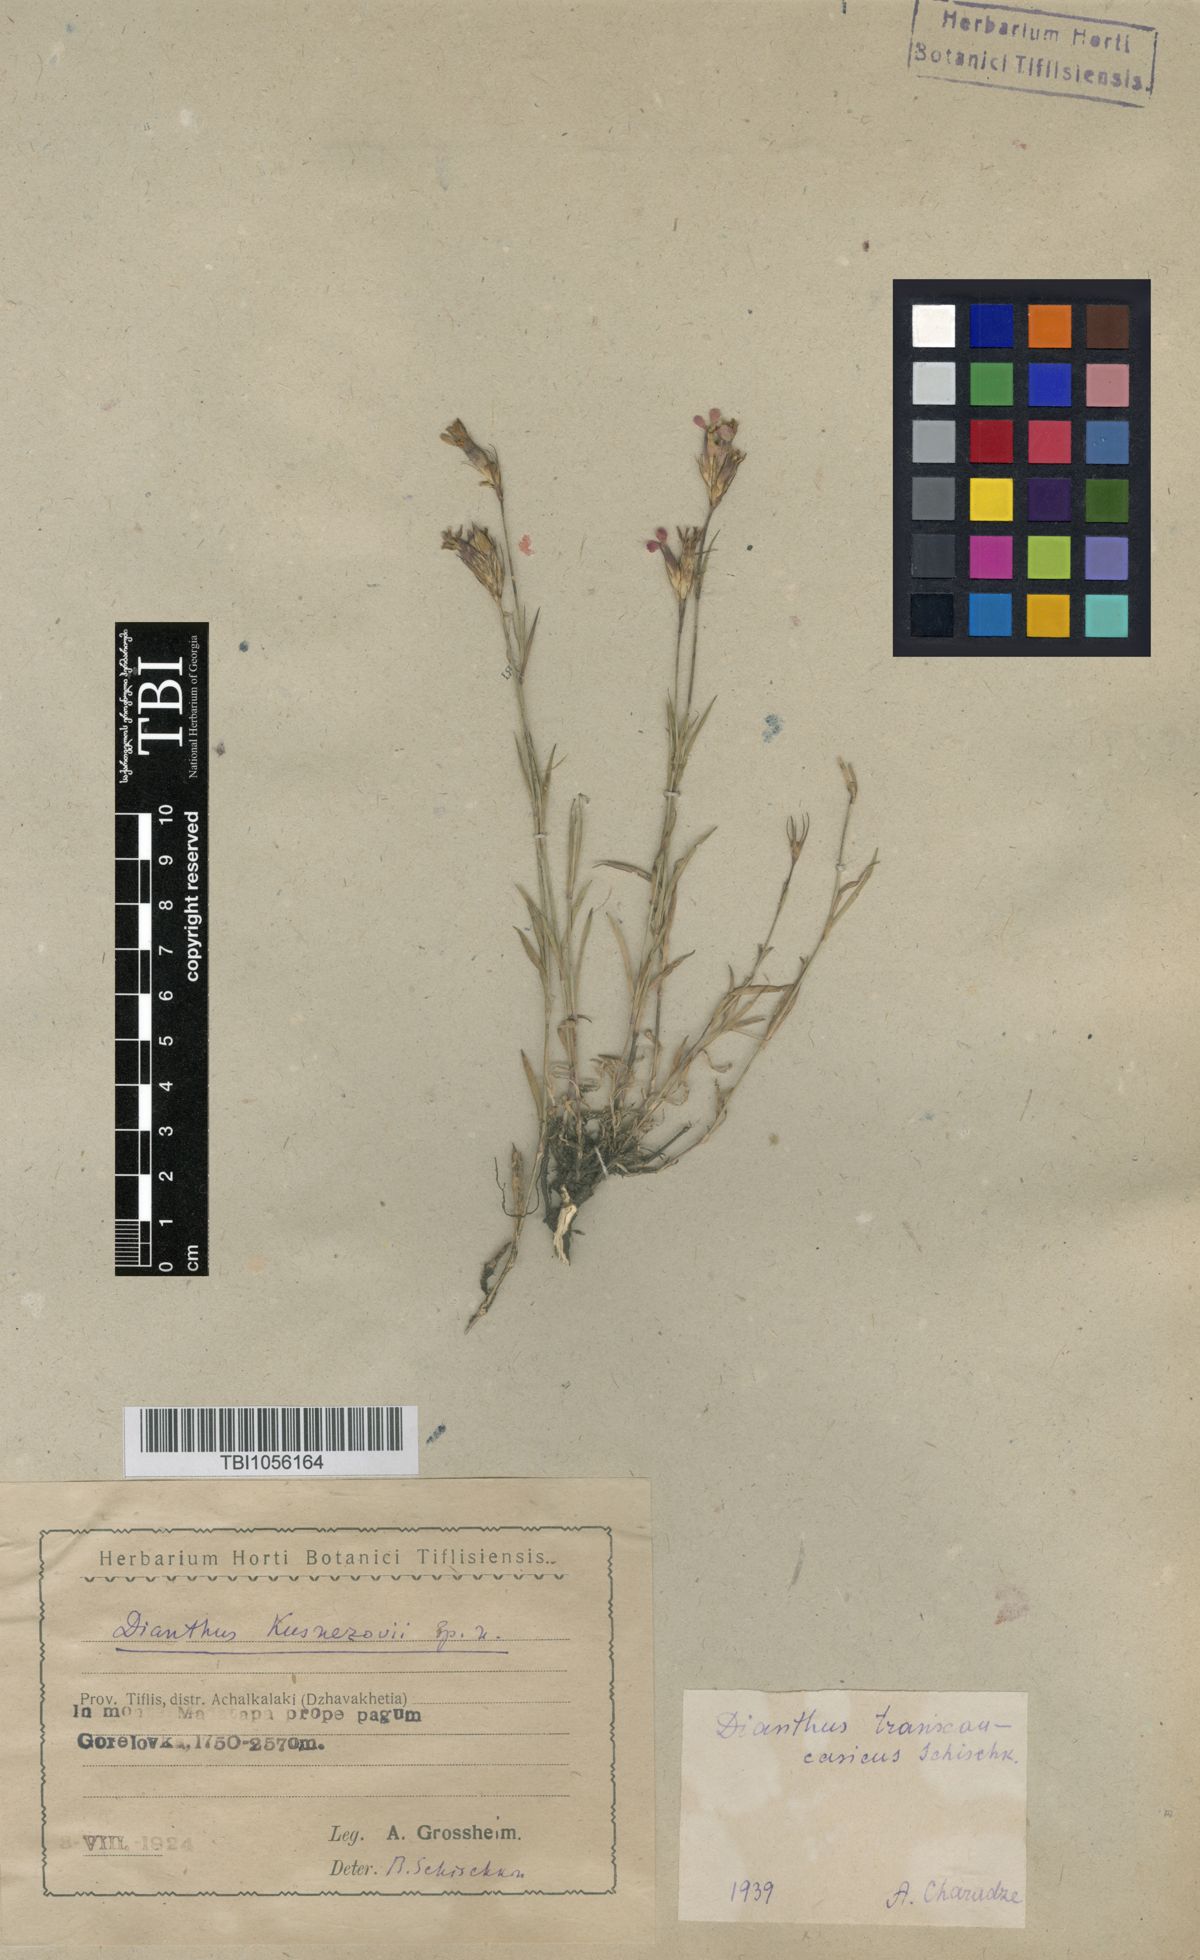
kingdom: Plantae
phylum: Tracheophyta
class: Magnoliopsida
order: Caryophyllales
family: Caryophyllaceae
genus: Dianthus
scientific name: Dianthus masmenaeus
